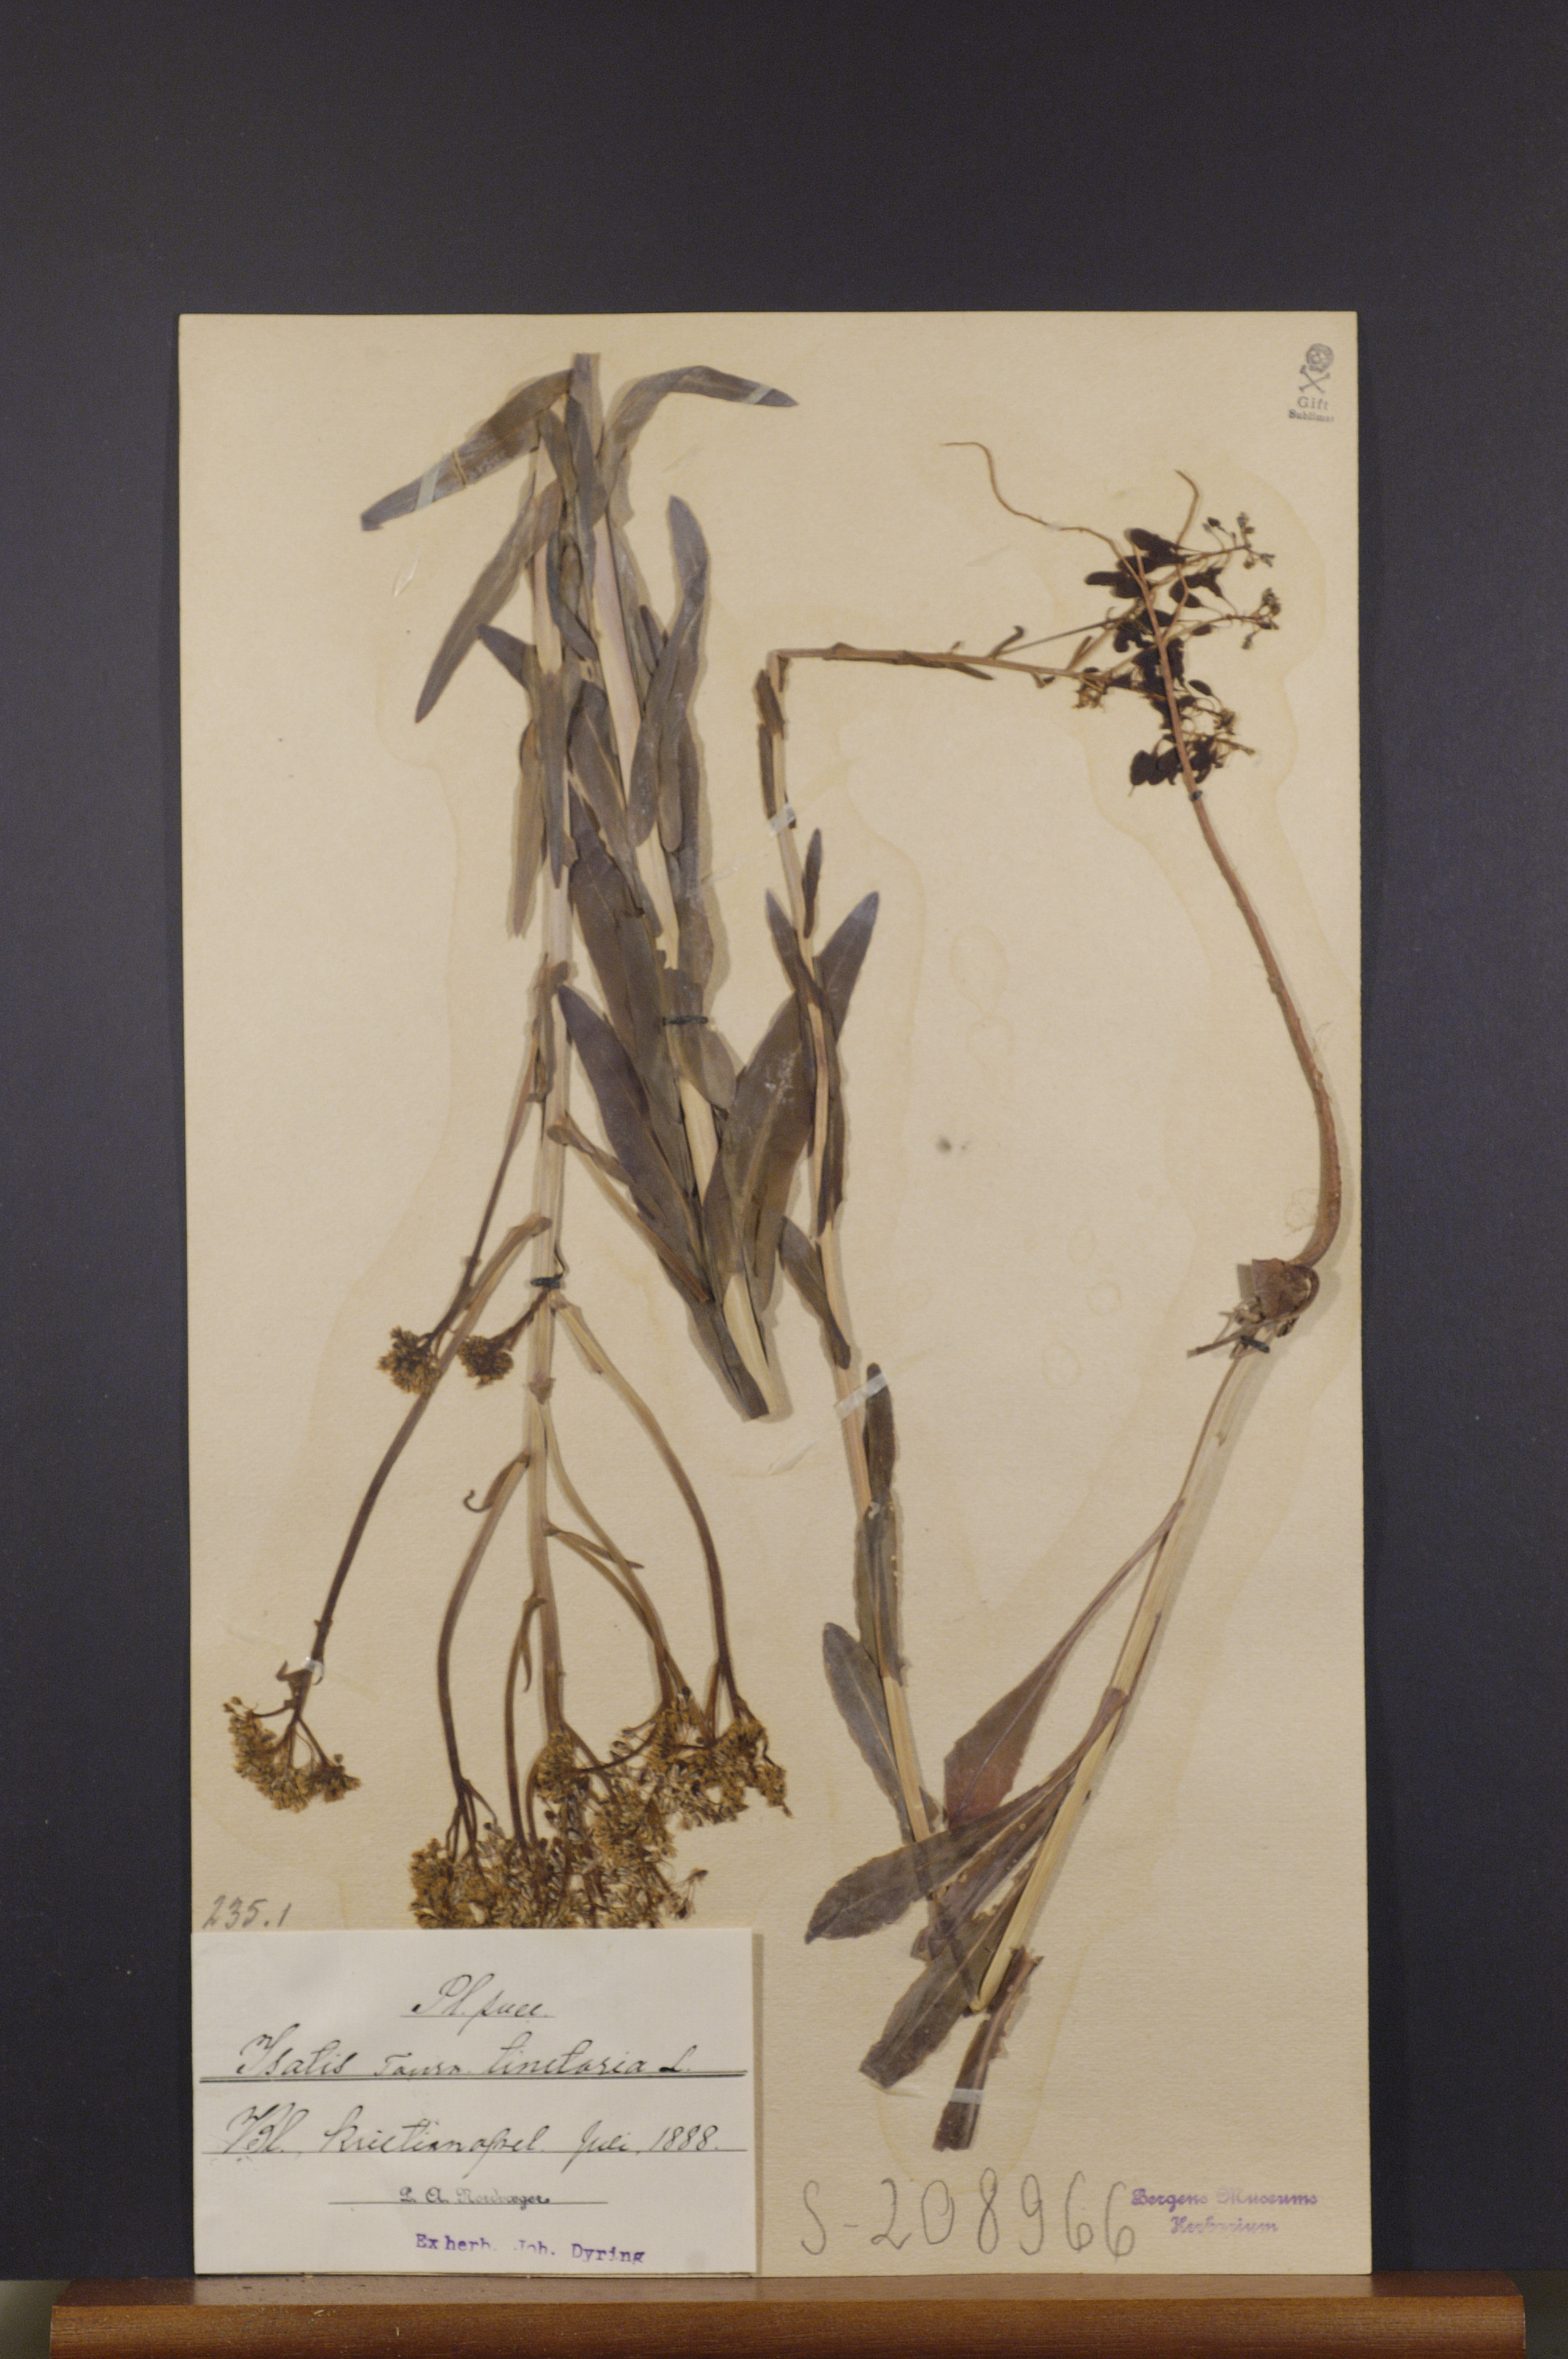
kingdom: Plantae
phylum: Tracheophyta
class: Magnoliopsida
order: Brassicales
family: Brassicaceae
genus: Isatis
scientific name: Isatis tinctoria
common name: Woad
